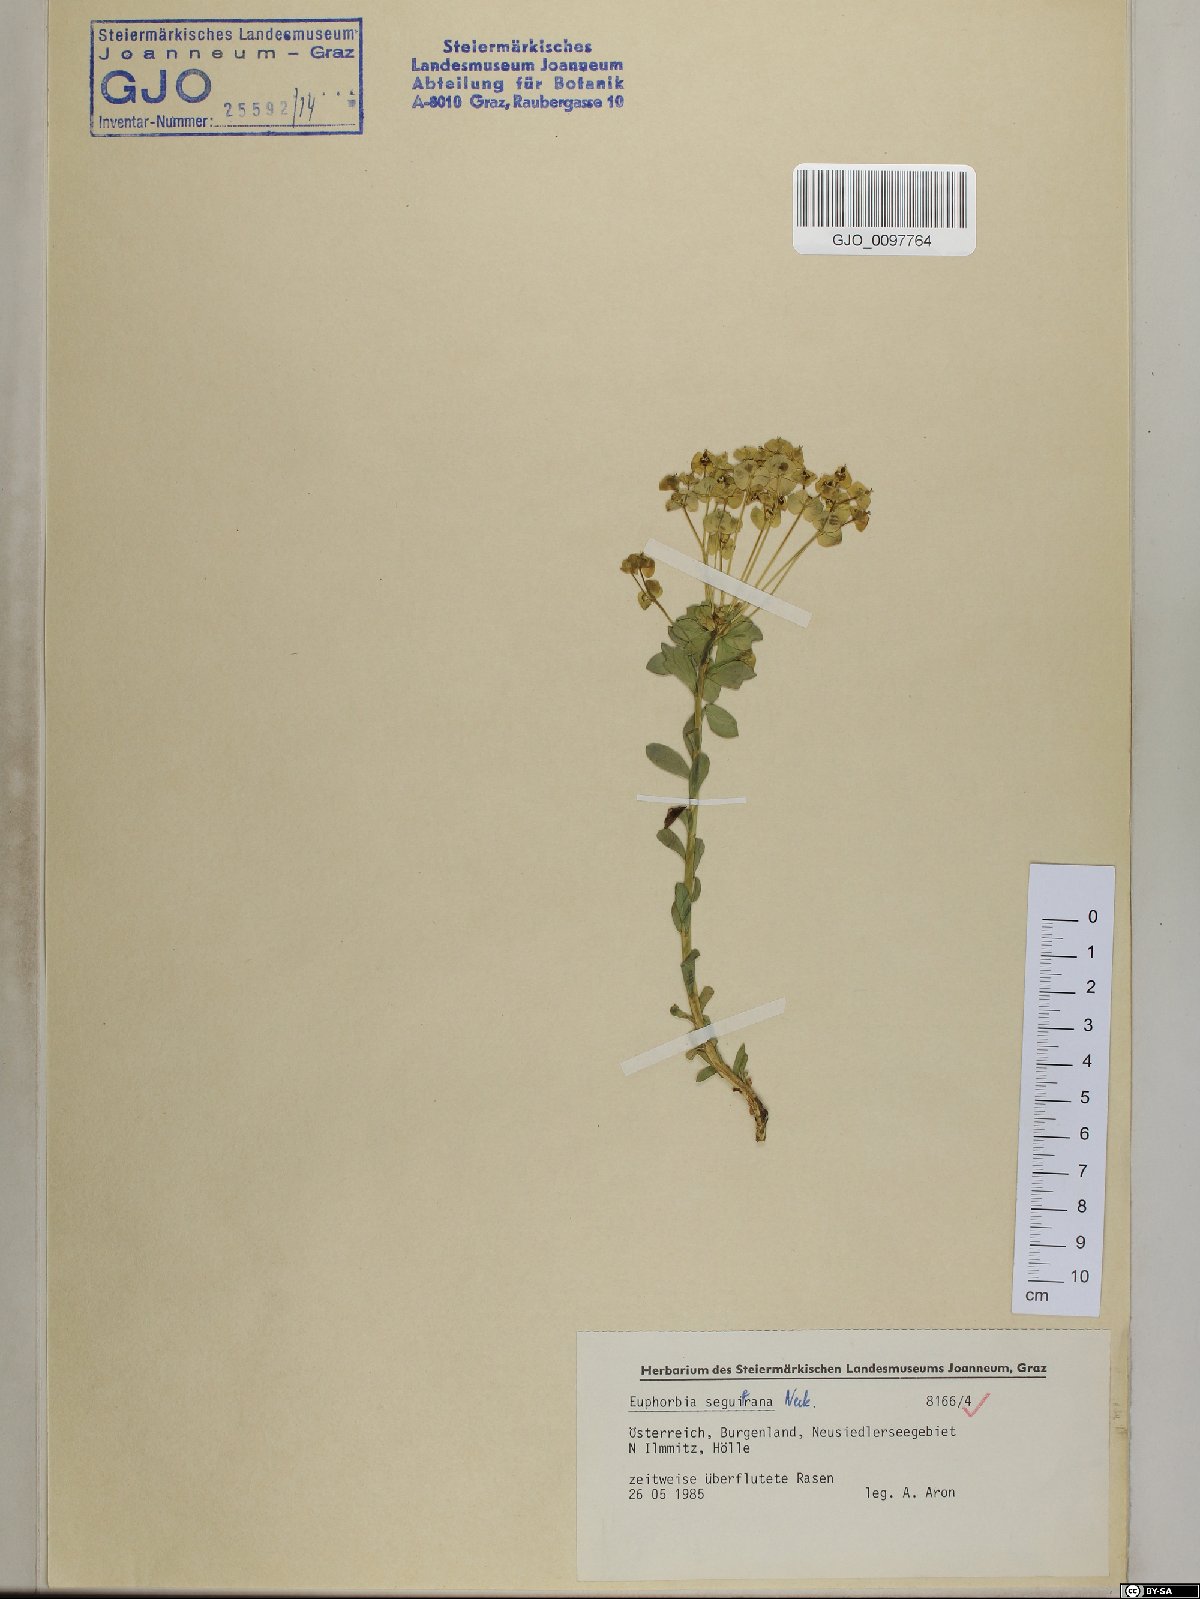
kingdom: Plantae
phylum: Tracheophyta
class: Magnoliopsida
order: Malpighiales
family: Euphorbiaceae
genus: Euphorbia
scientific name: Euphorbia seguieriana
